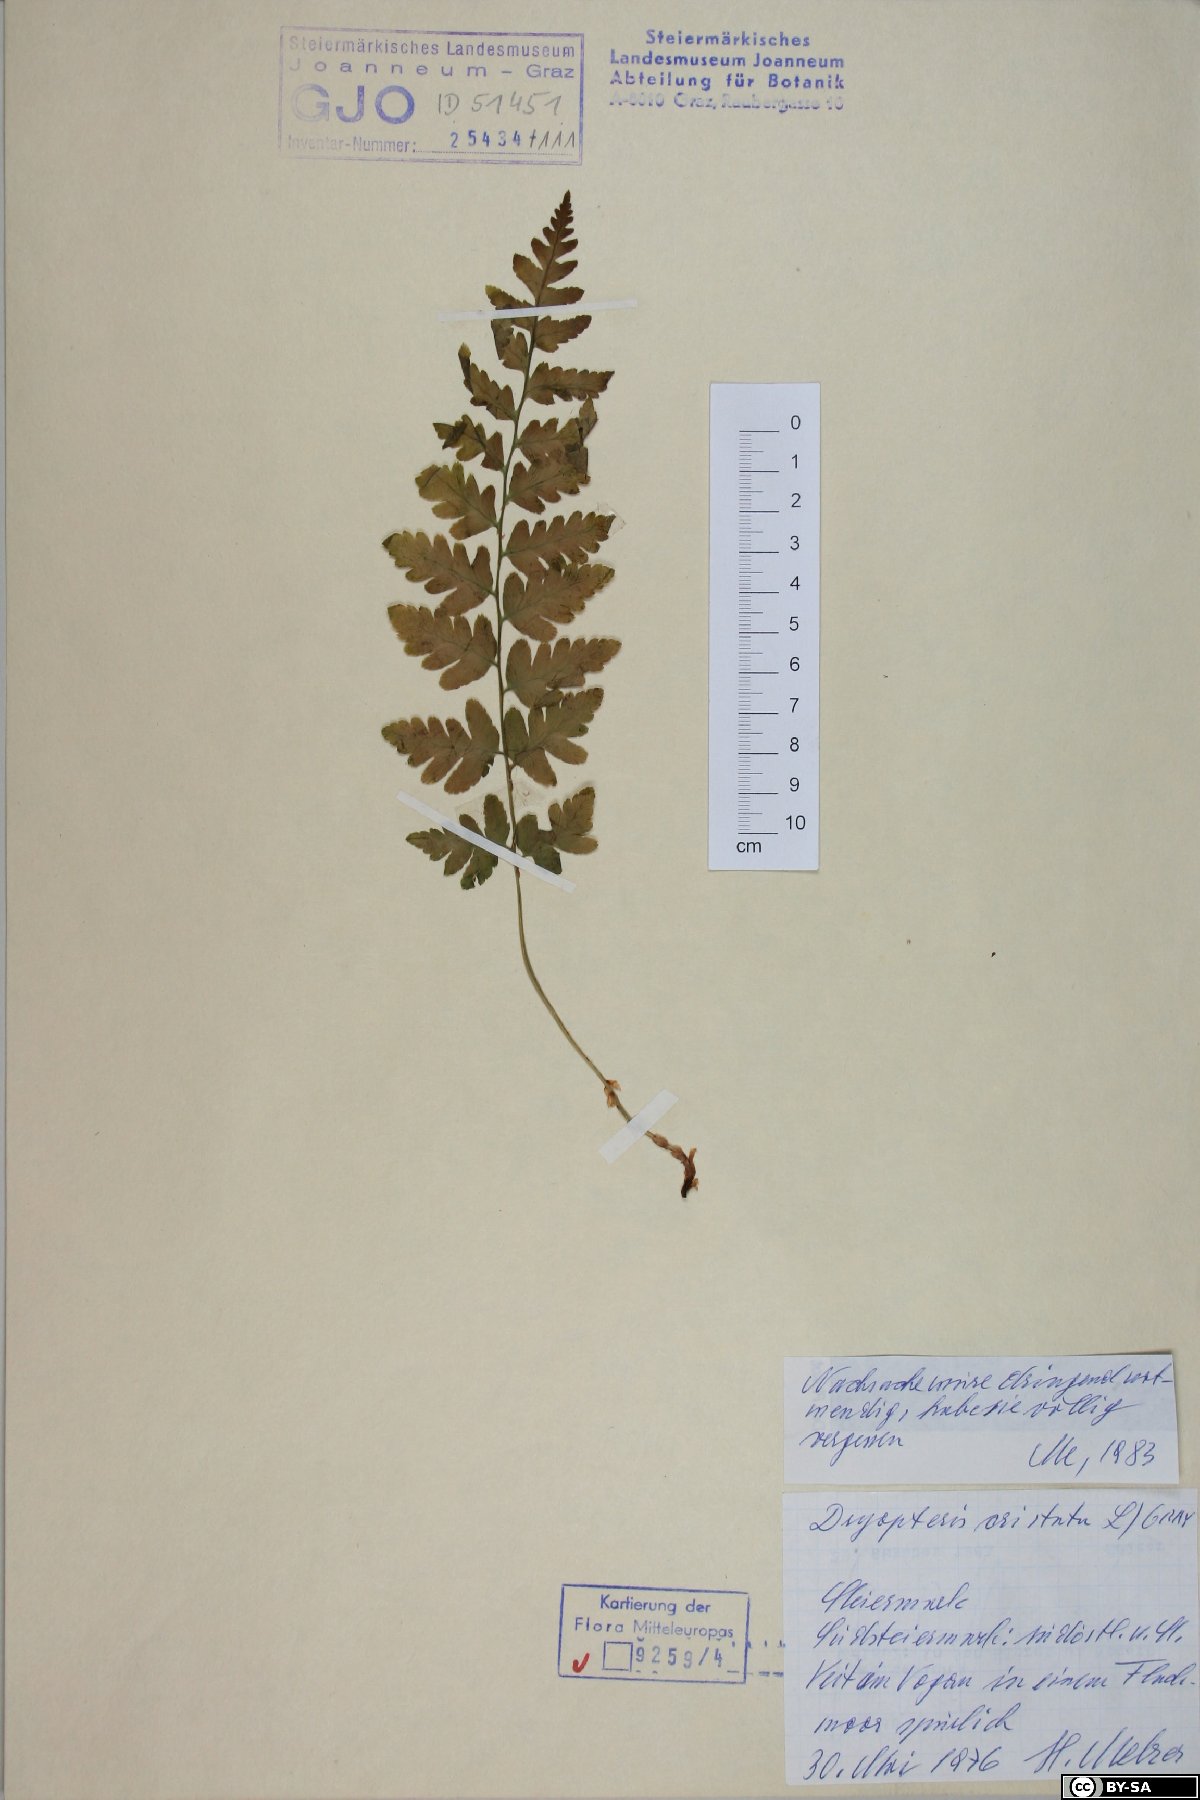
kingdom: Plantae
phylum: Tracheophyta
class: Polypodiopsida
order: Polypodiales
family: Dryopteridaceae
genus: Dryopteris
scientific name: Dryopteris cristata
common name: Crested wood fern
